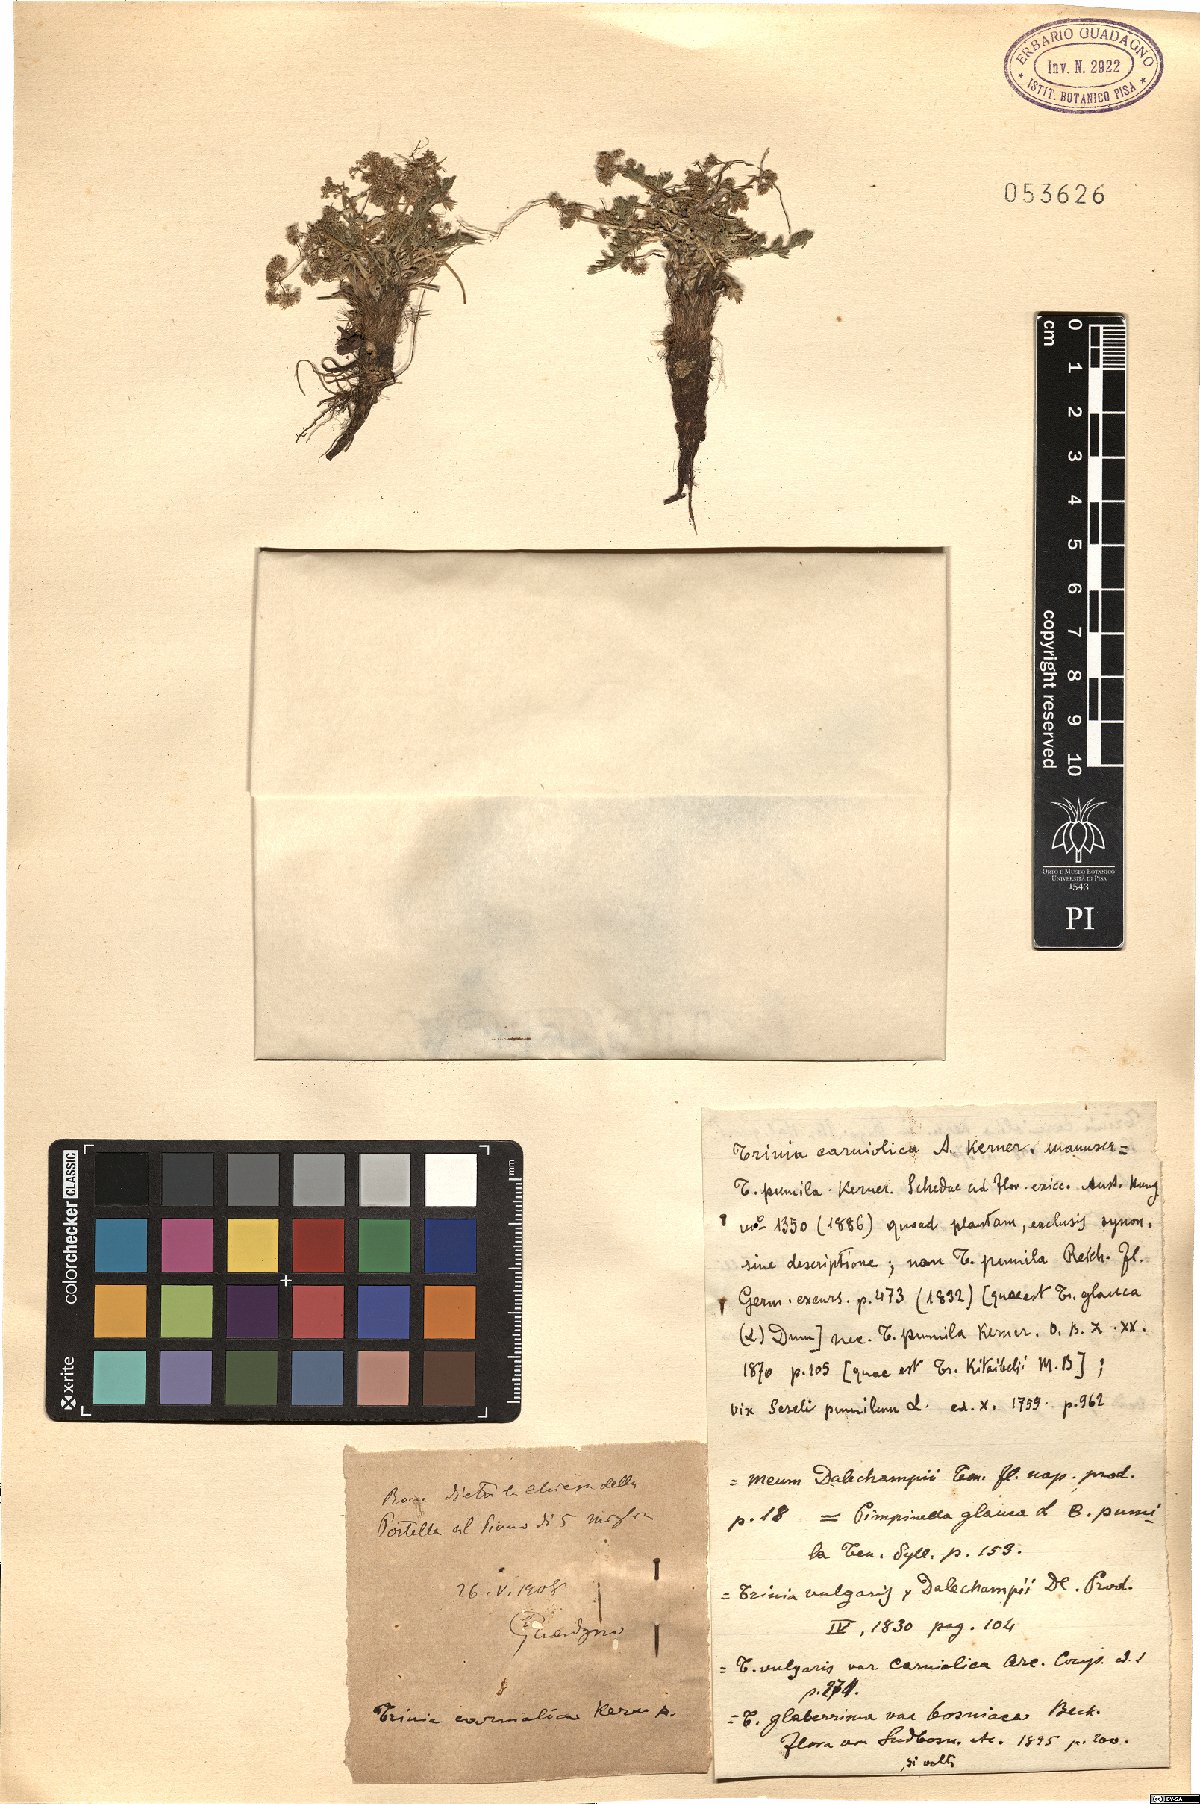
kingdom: Plantae
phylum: Tracheophyta
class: Magnoliopsida
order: Apiales
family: Apiaceae
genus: Trinia
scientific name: Trinia glauca
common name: Honewort
